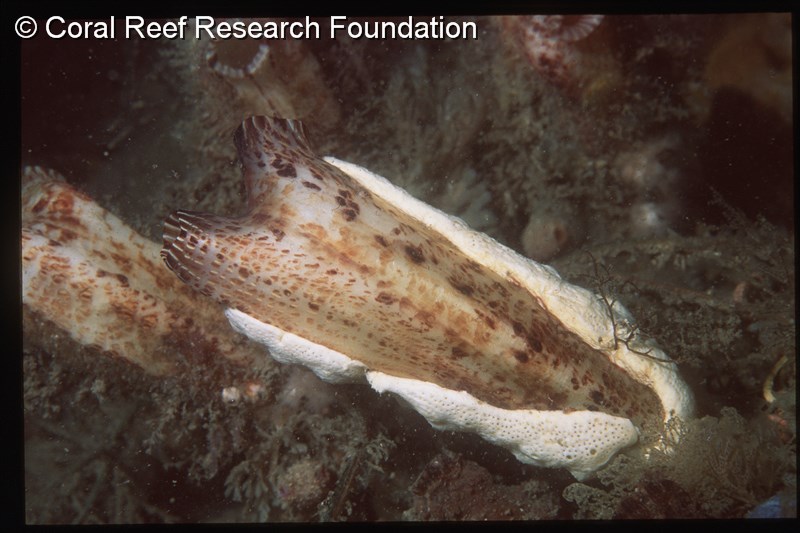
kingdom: Animalia
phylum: Chordata
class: Ascidiacea
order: Stolidobranchia
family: Styelidae
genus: Styela
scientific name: Styela angularis
